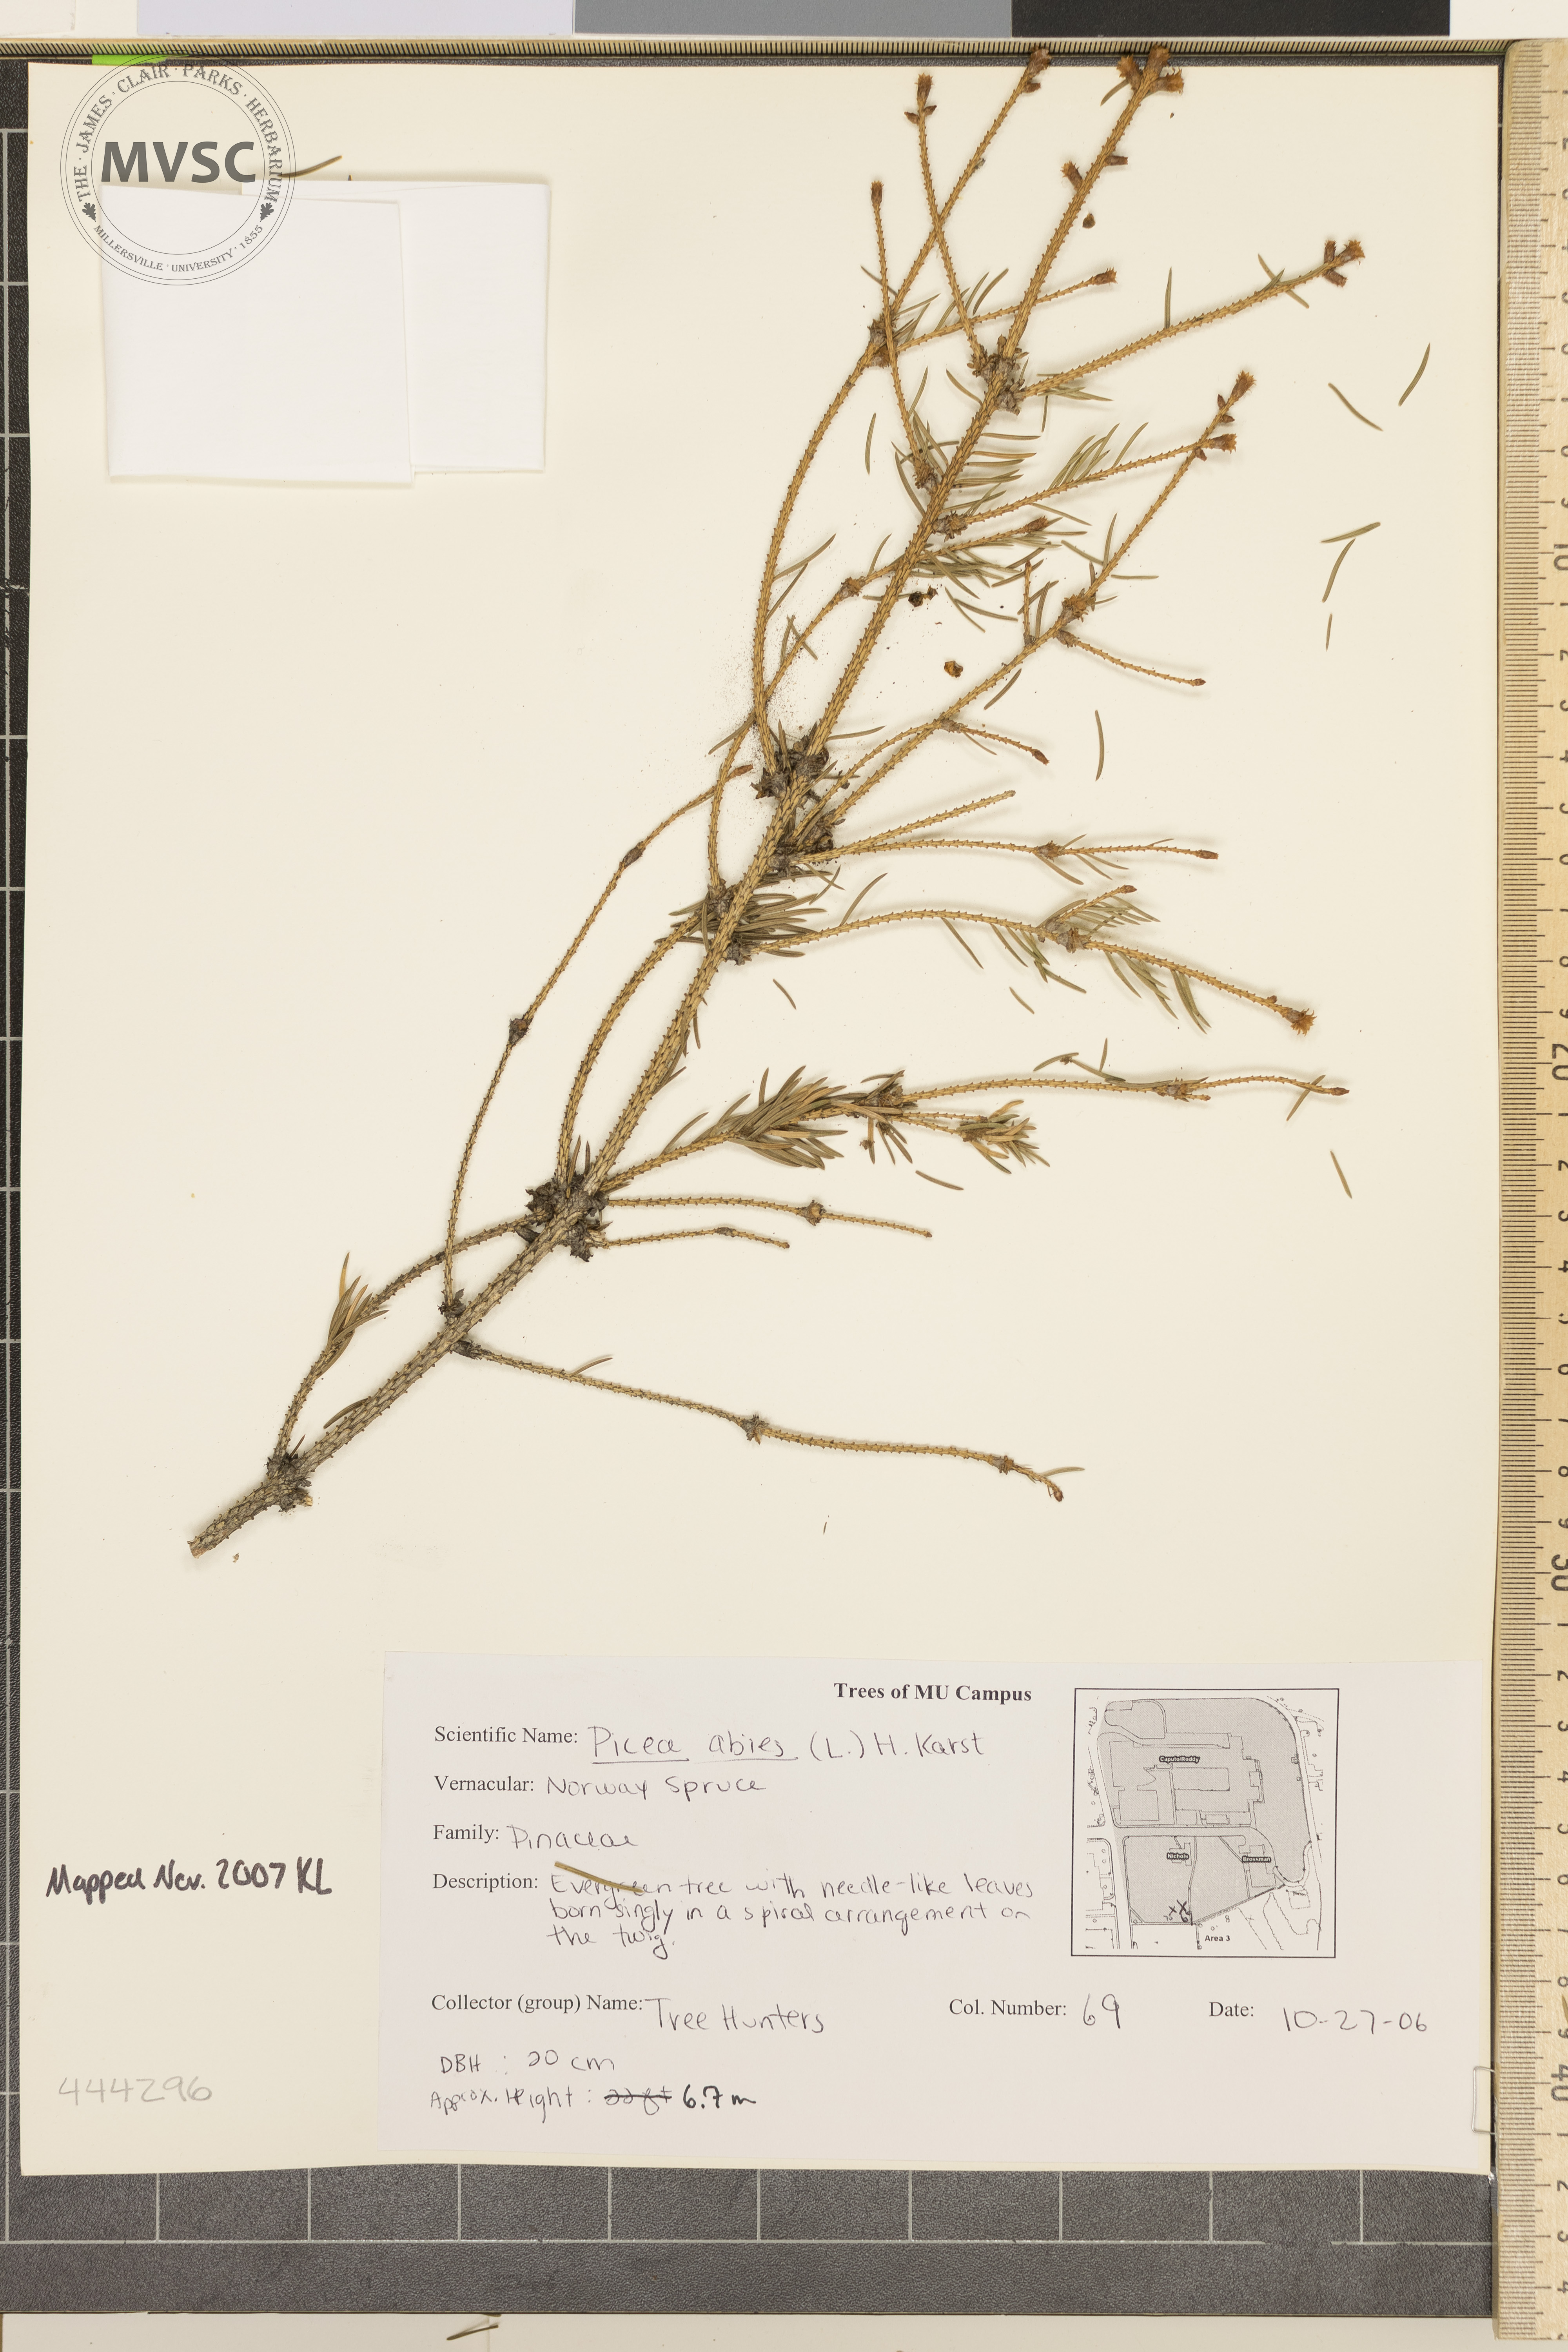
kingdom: Plantae
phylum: Tracheophyta
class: Pinopsida
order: Pinales
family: Pinaceae
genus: Picea
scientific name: Picea abies
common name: Norway Spruce
